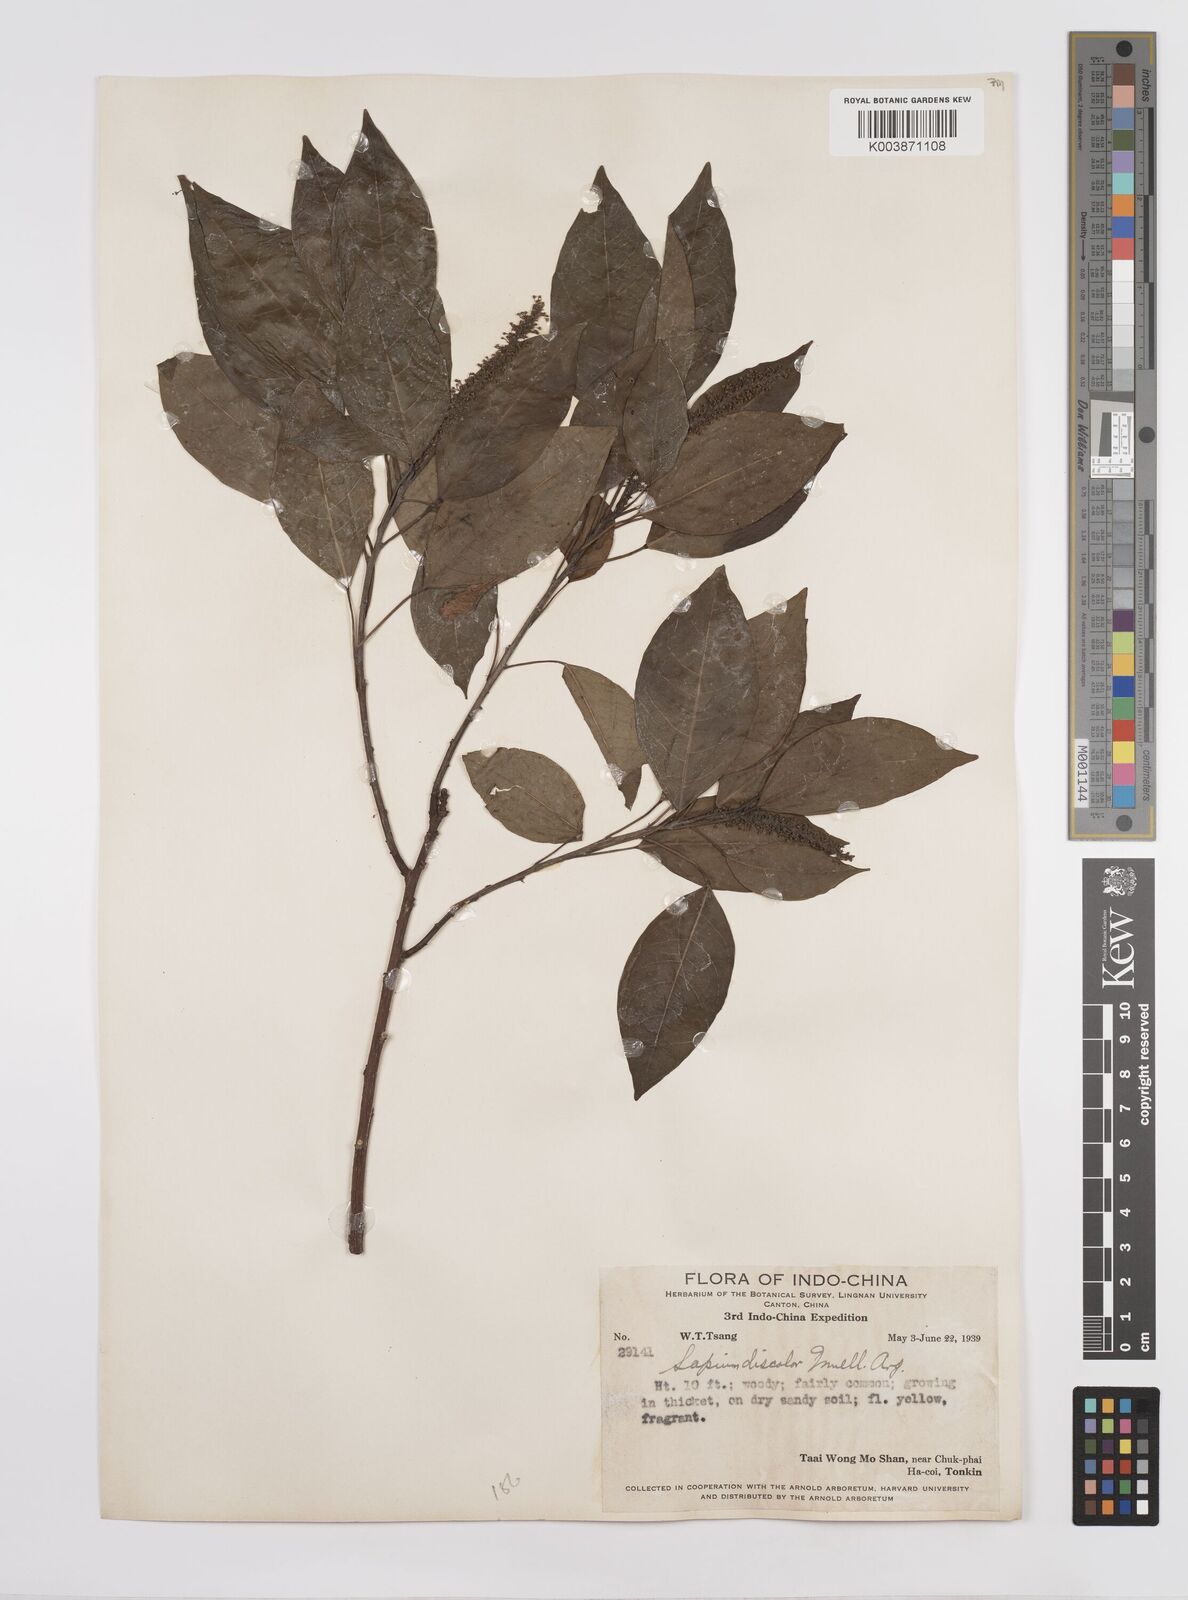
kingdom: Plantae
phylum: Tracheophyta
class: Magnoliopsida
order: Malpighiales
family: Euphorbiaceae
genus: Triadica
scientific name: Triadica cochinchinensis
